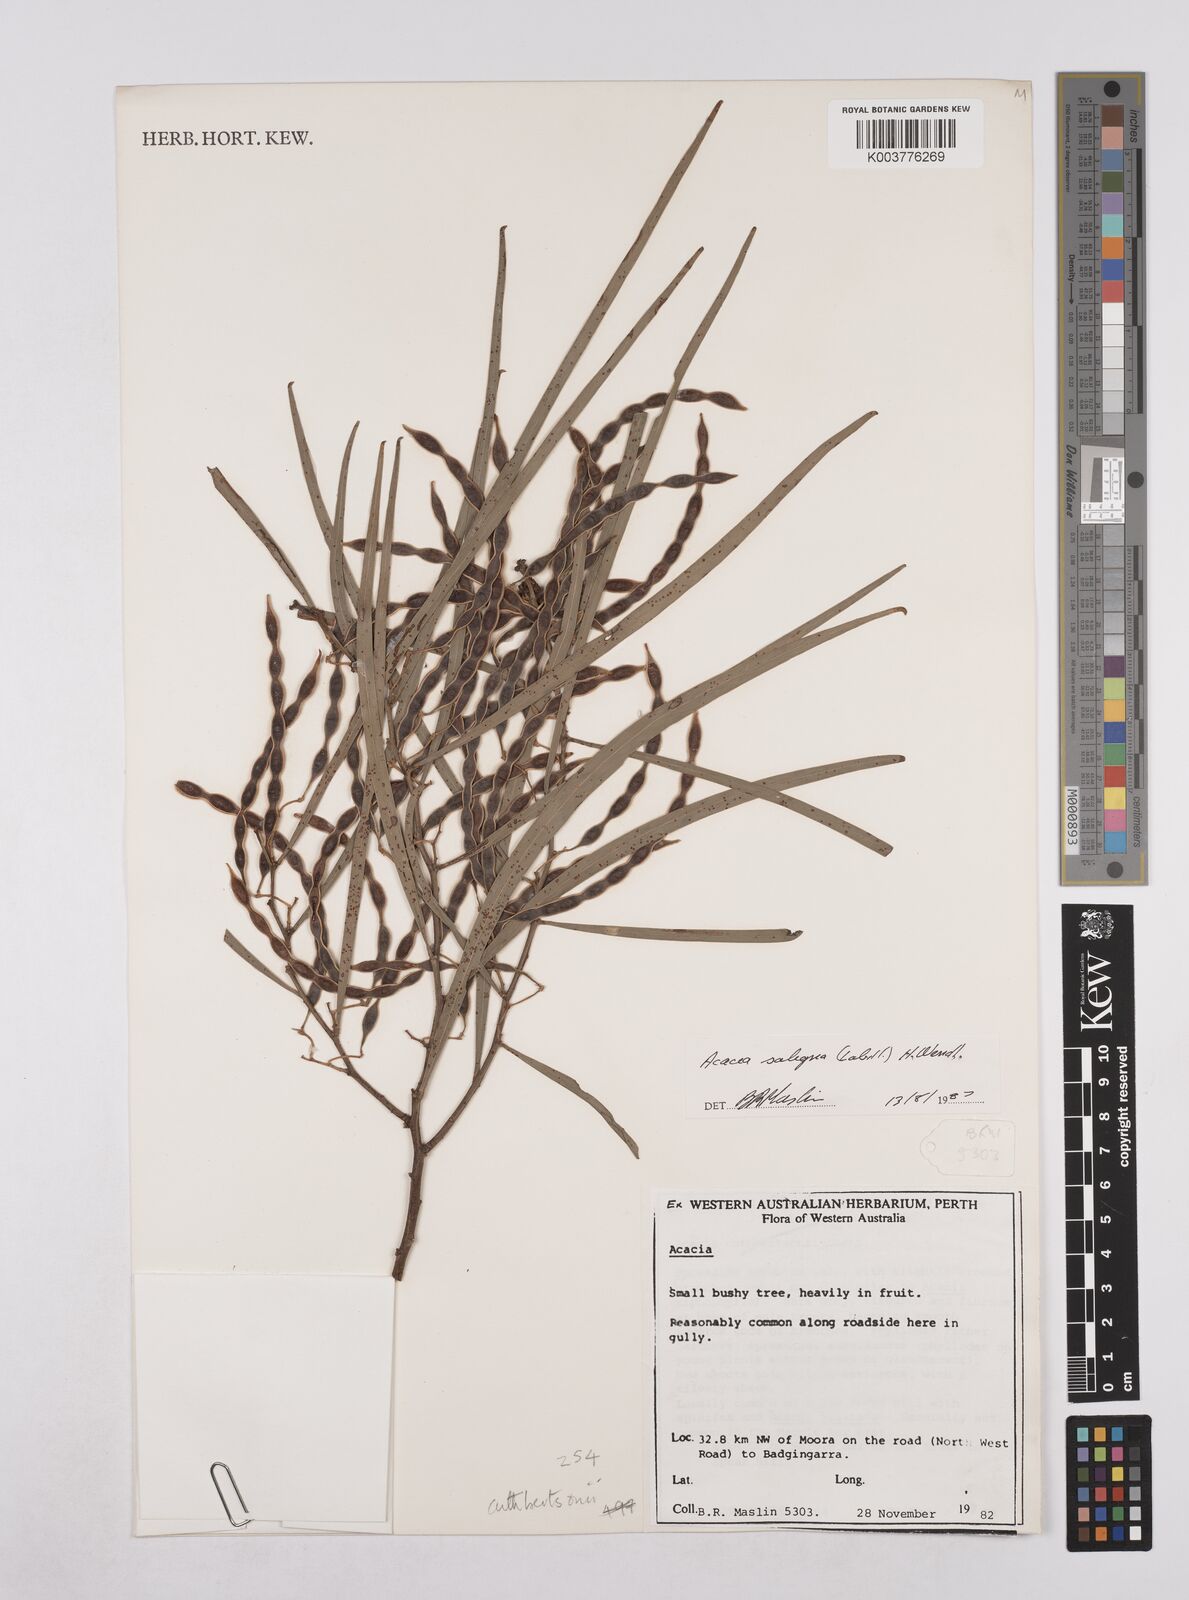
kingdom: Plantae
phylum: Tracheophyta
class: Magnoliopsida
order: Fabales
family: Fabaceae
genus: Acacia
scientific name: Acacia saligna
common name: Orange wattle
